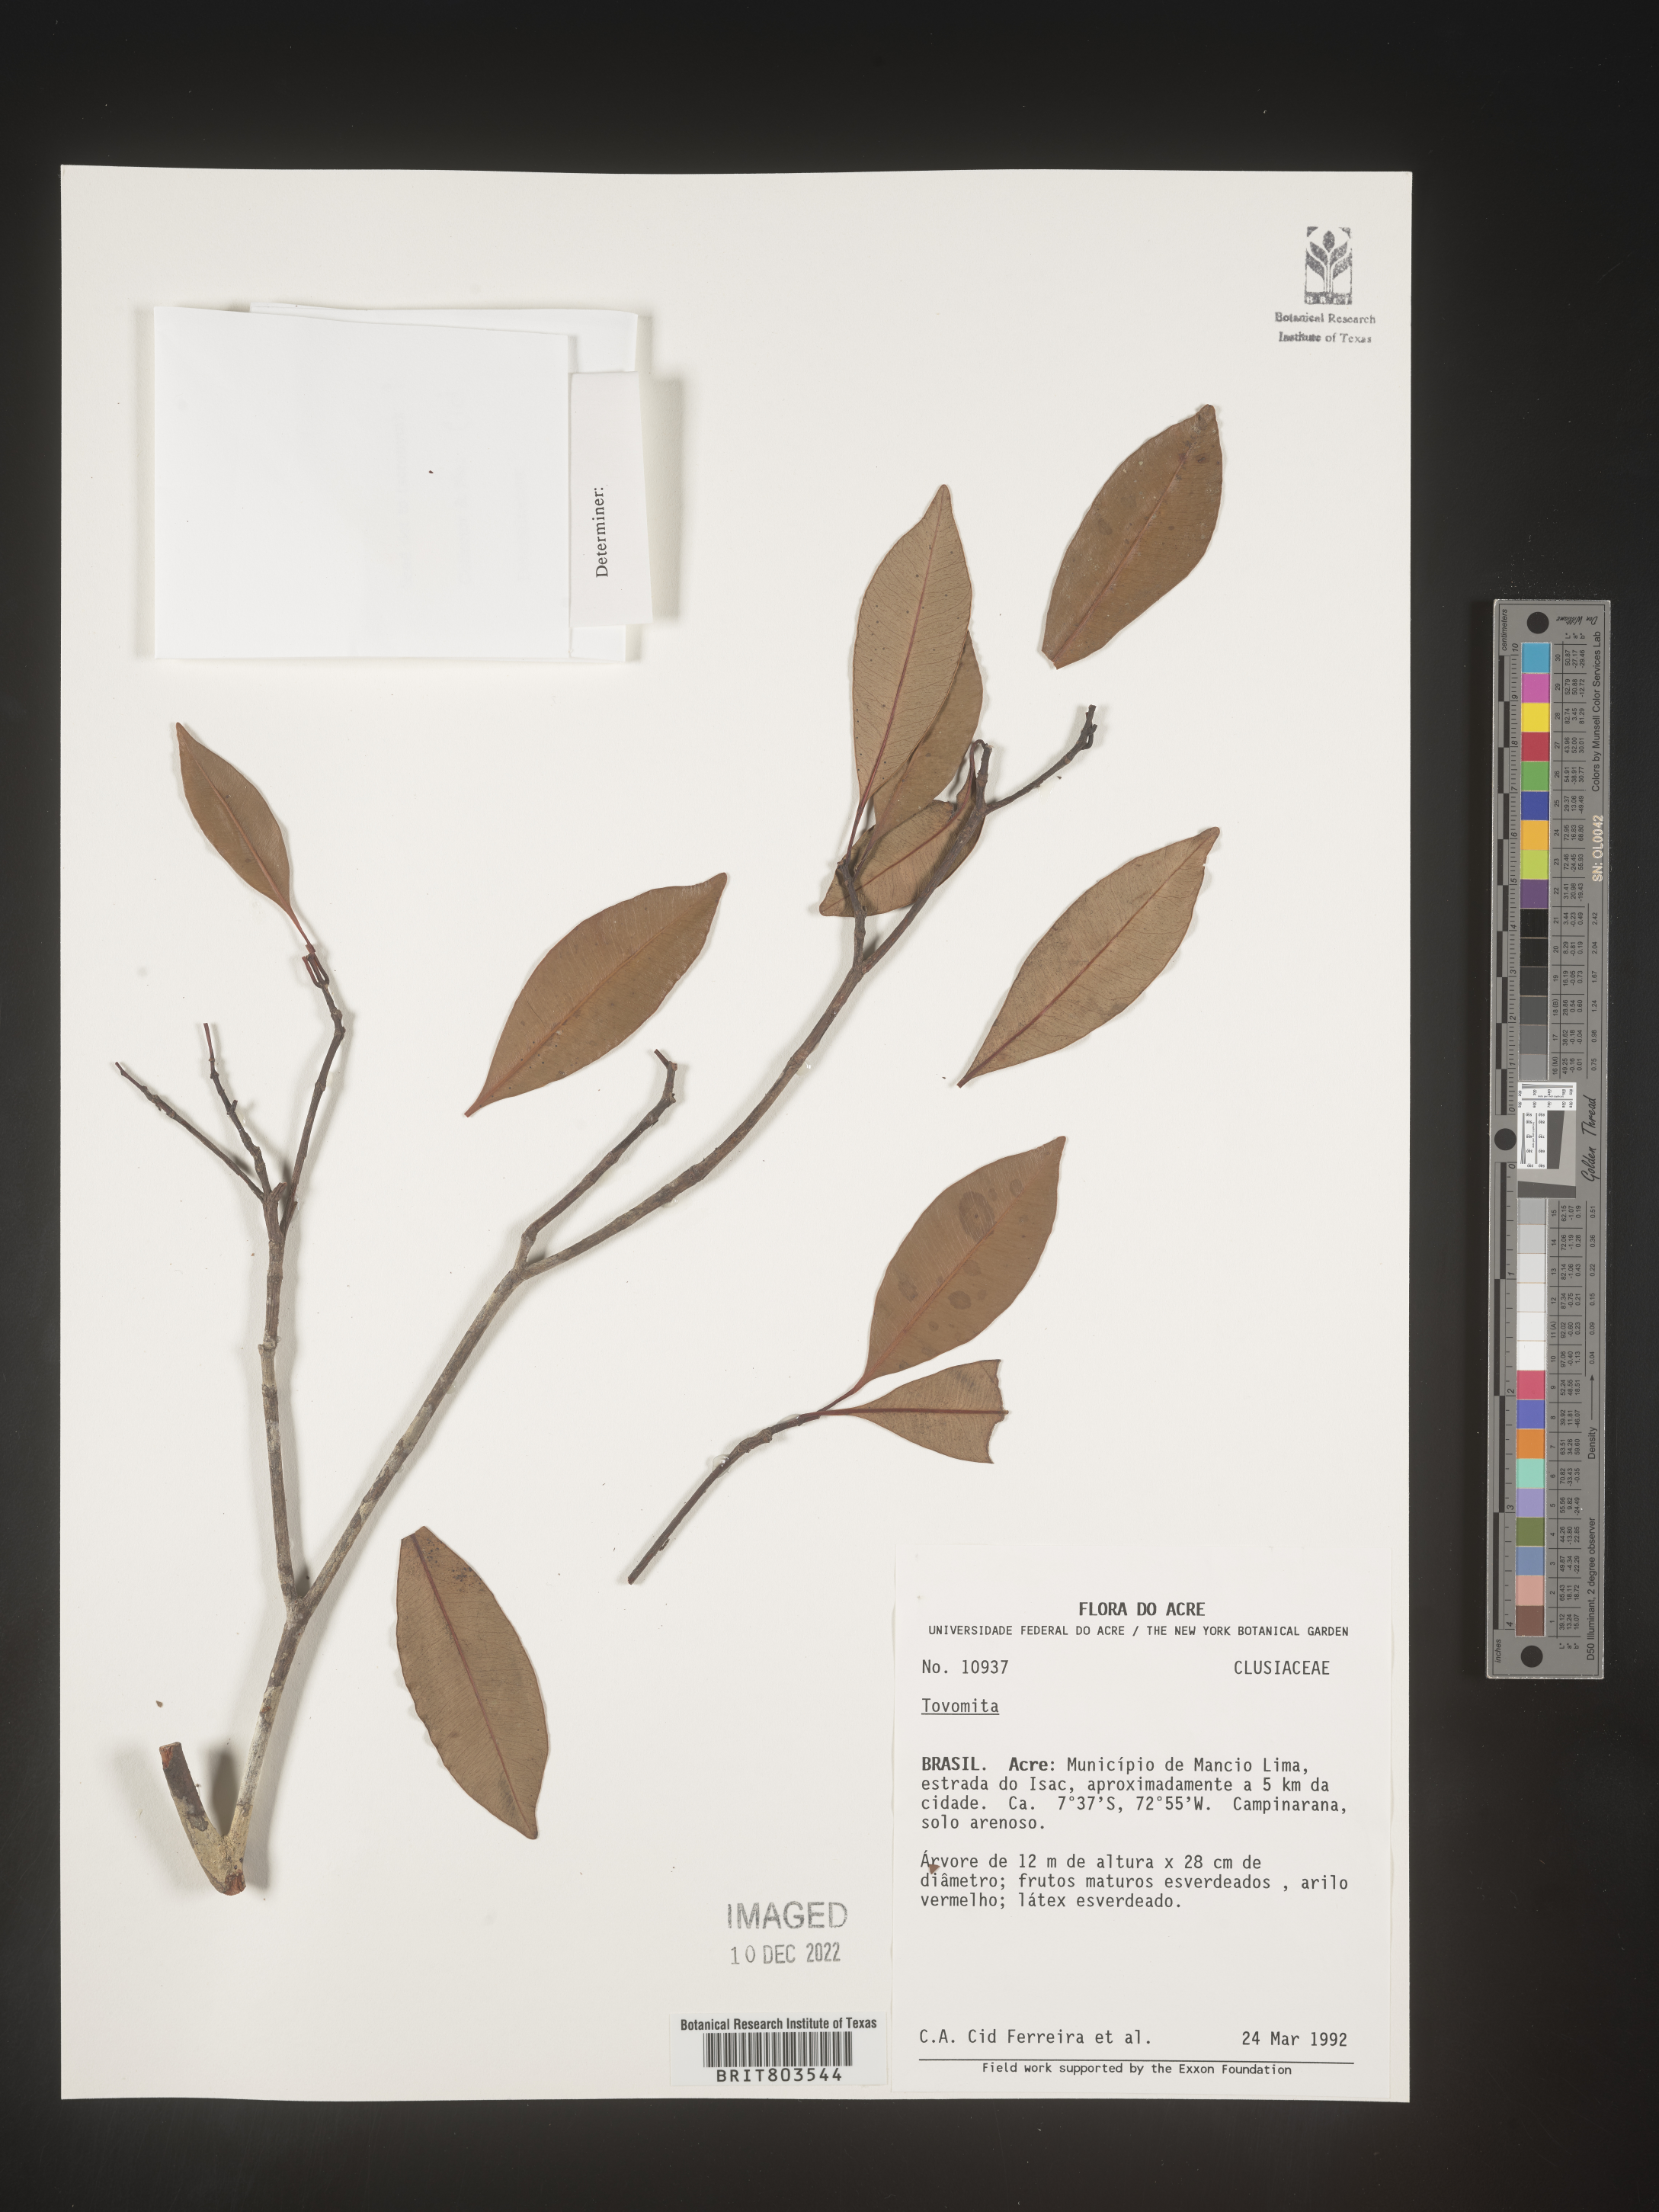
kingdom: Plantae
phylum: Tracheophyta
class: Magnoliopsida
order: Malpighiales
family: Clusiaceae
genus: Tovomita
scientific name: Tovomita
